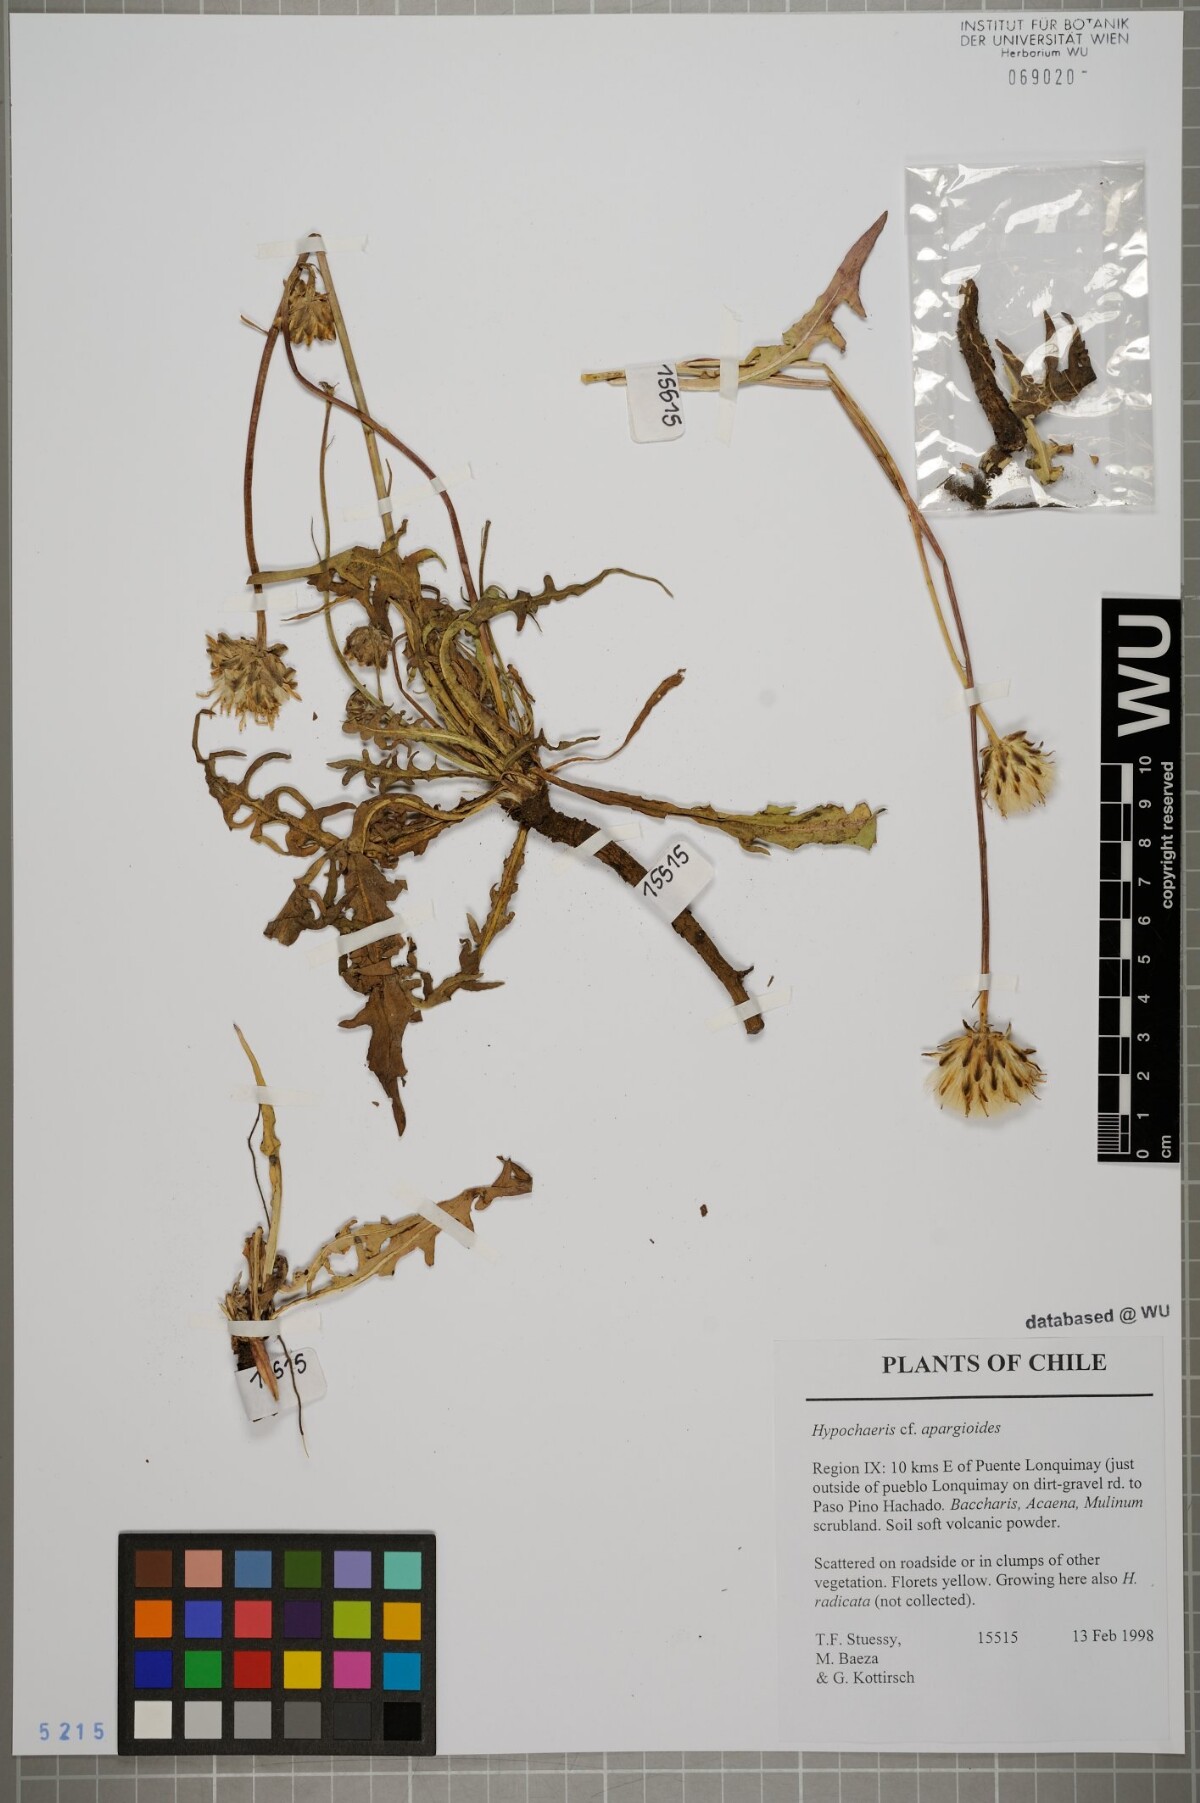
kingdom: Plantae
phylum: Tracheophyta
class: Magnoliopsida
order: Asterales
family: Asteraceae
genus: Hypochaeris
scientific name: Hypochaeris apargioides
